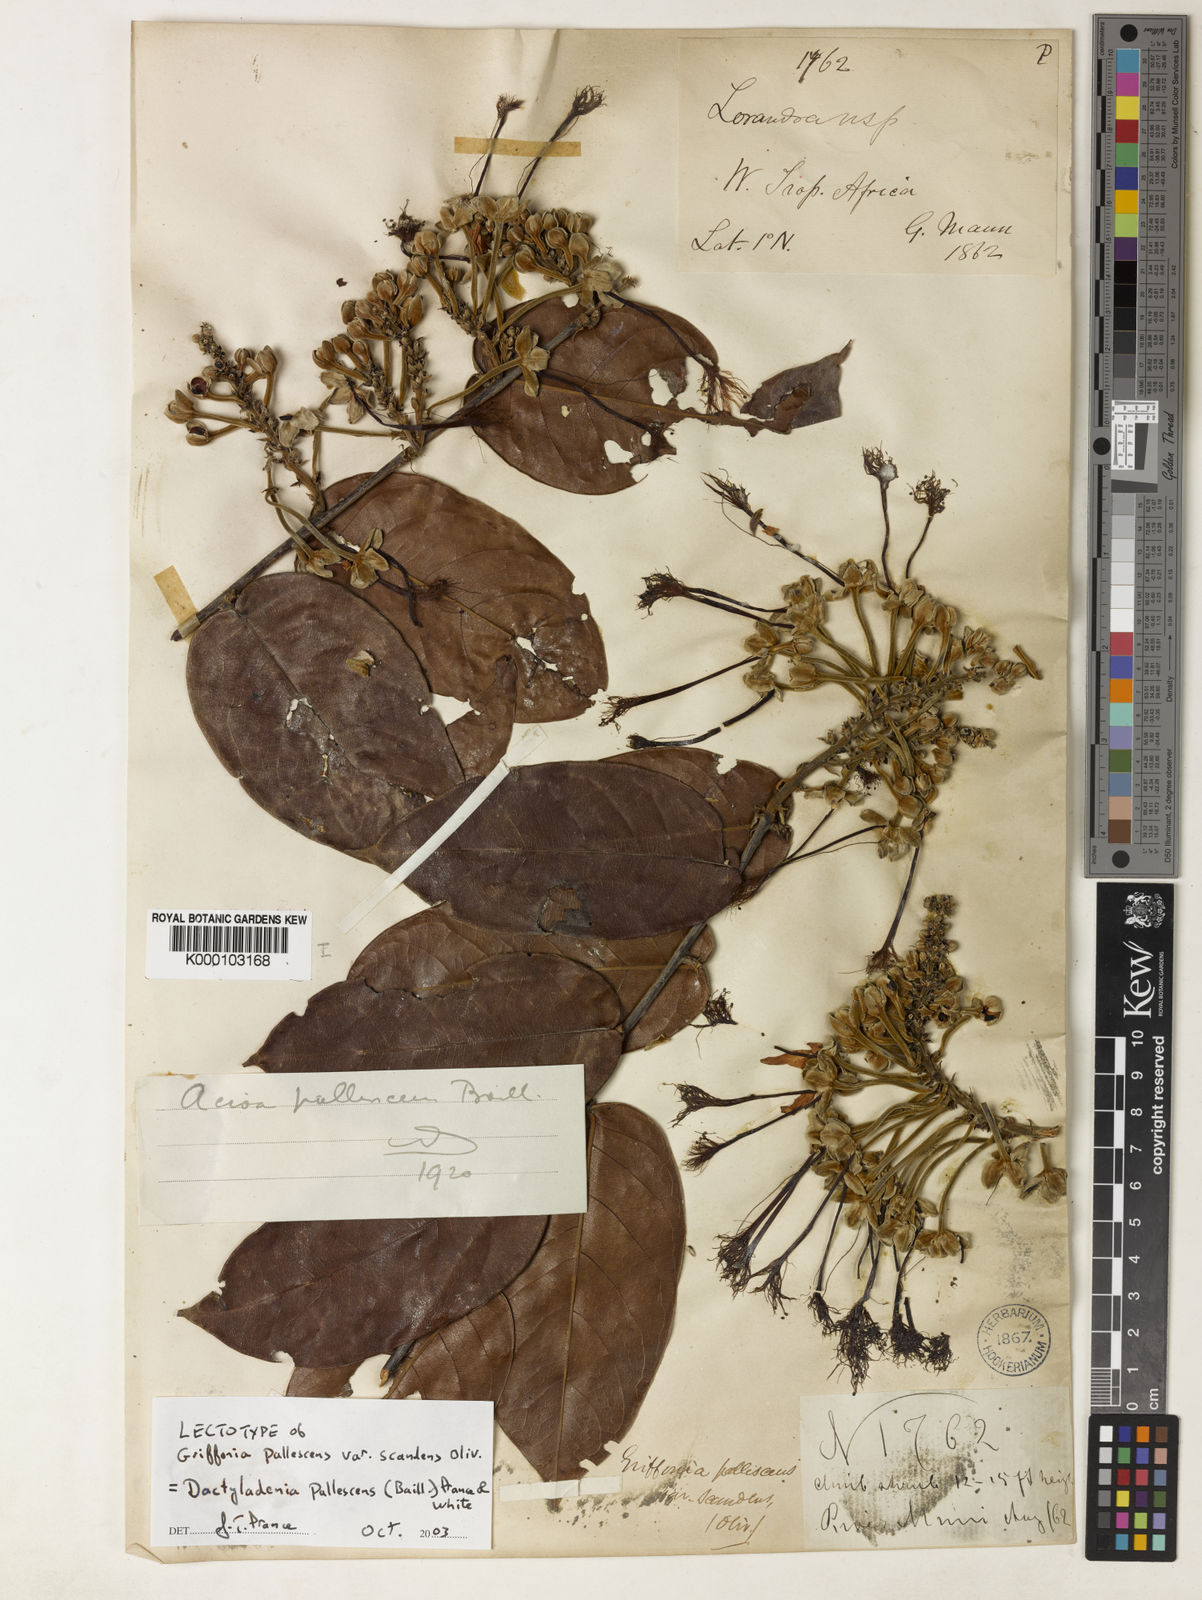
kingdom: Plantae
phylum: Tracheophyta
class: Magnoliopsida
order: Malpighiales
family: Chrysobalanaceae
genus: Dactyladenia
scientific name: Dactyladenia pallescens
